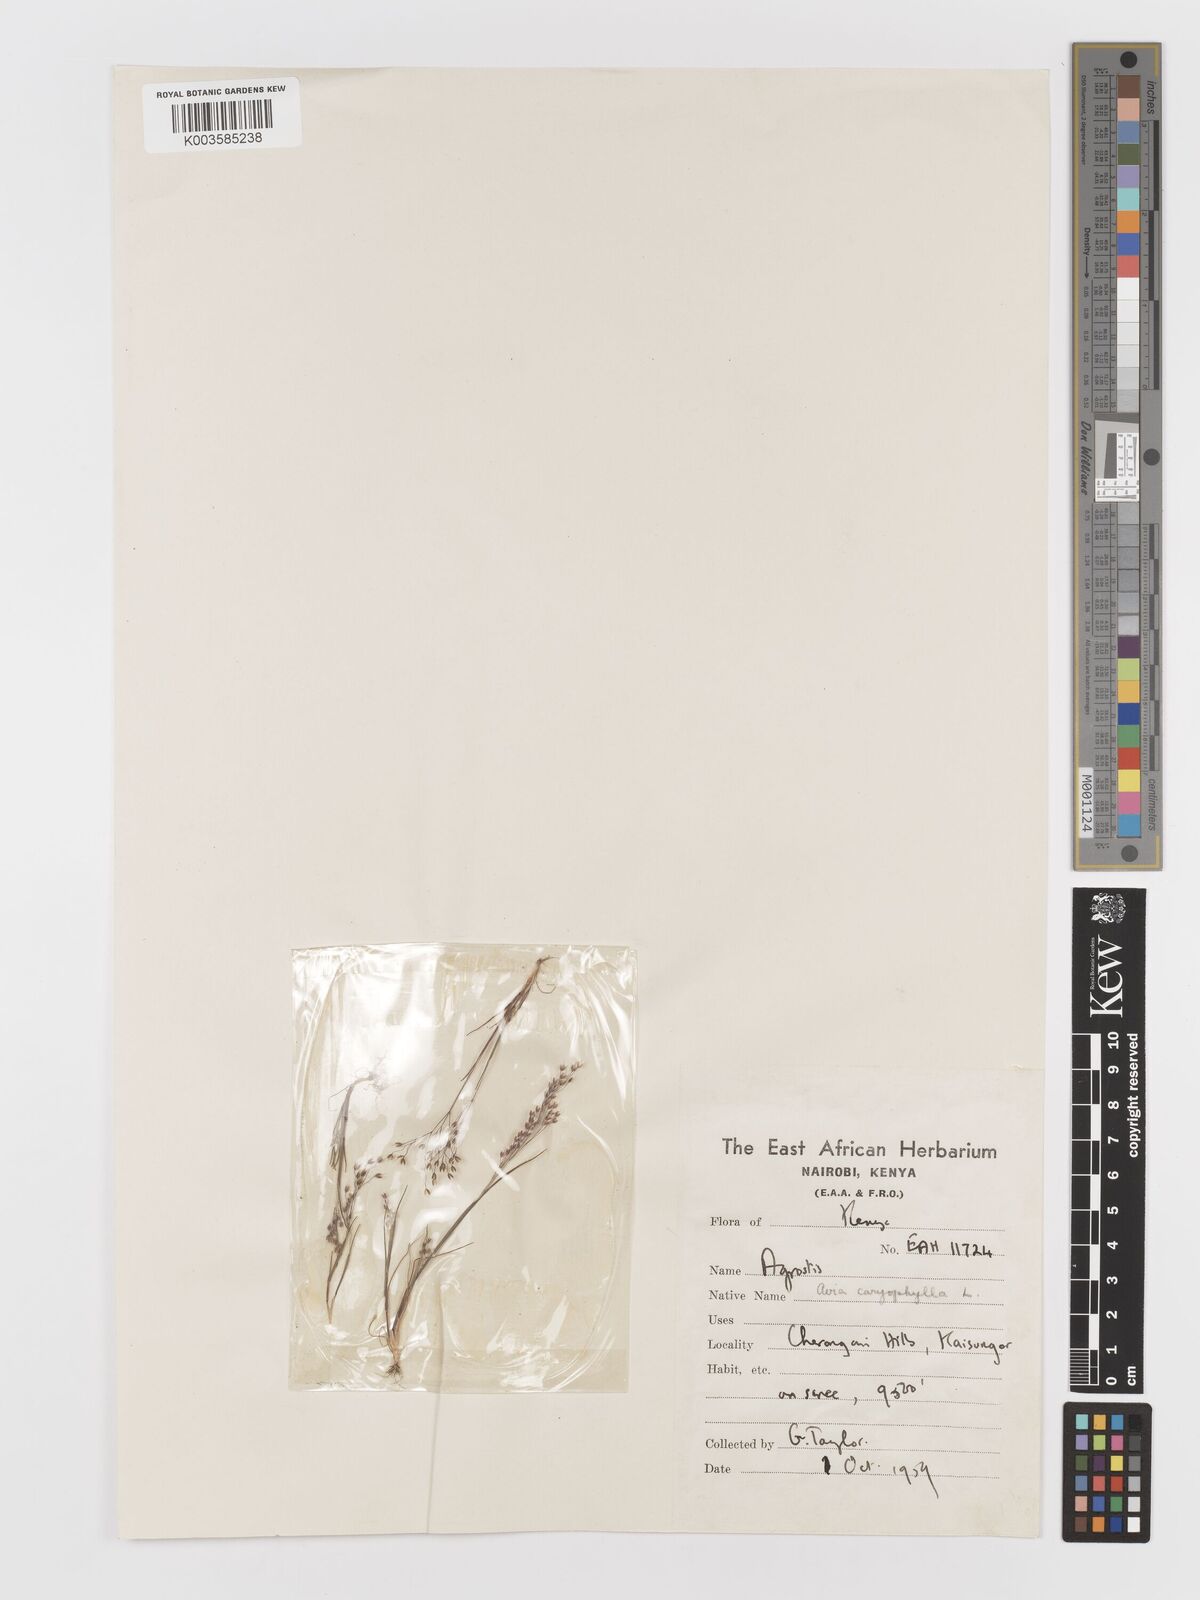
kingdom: Plantae
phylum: Tracheophyta
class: Liliopsida
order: Poales
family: Poaceae
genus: Aira
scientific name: Aira caryophyllea
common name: Silver hairgrass
